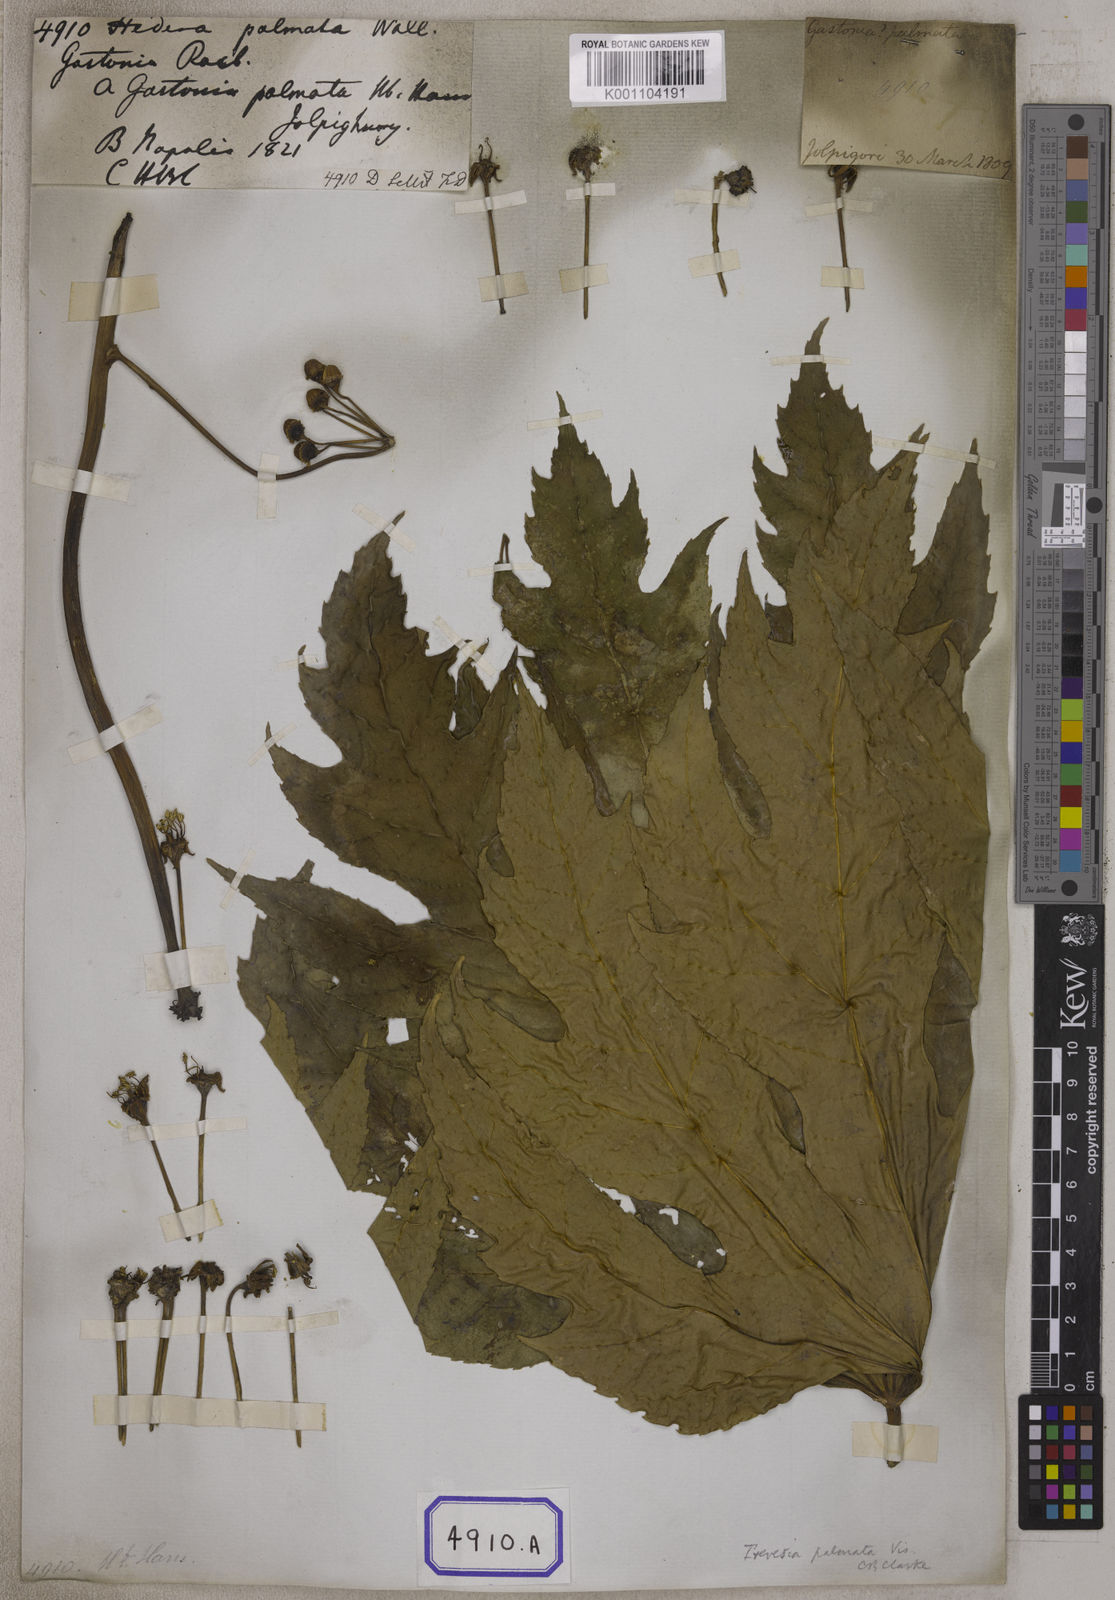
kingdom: Plantae
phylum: Tracheophyta
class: Magnoliopsida
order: Apiales
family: Araliaceae
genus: Hedera
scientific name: Hedera
